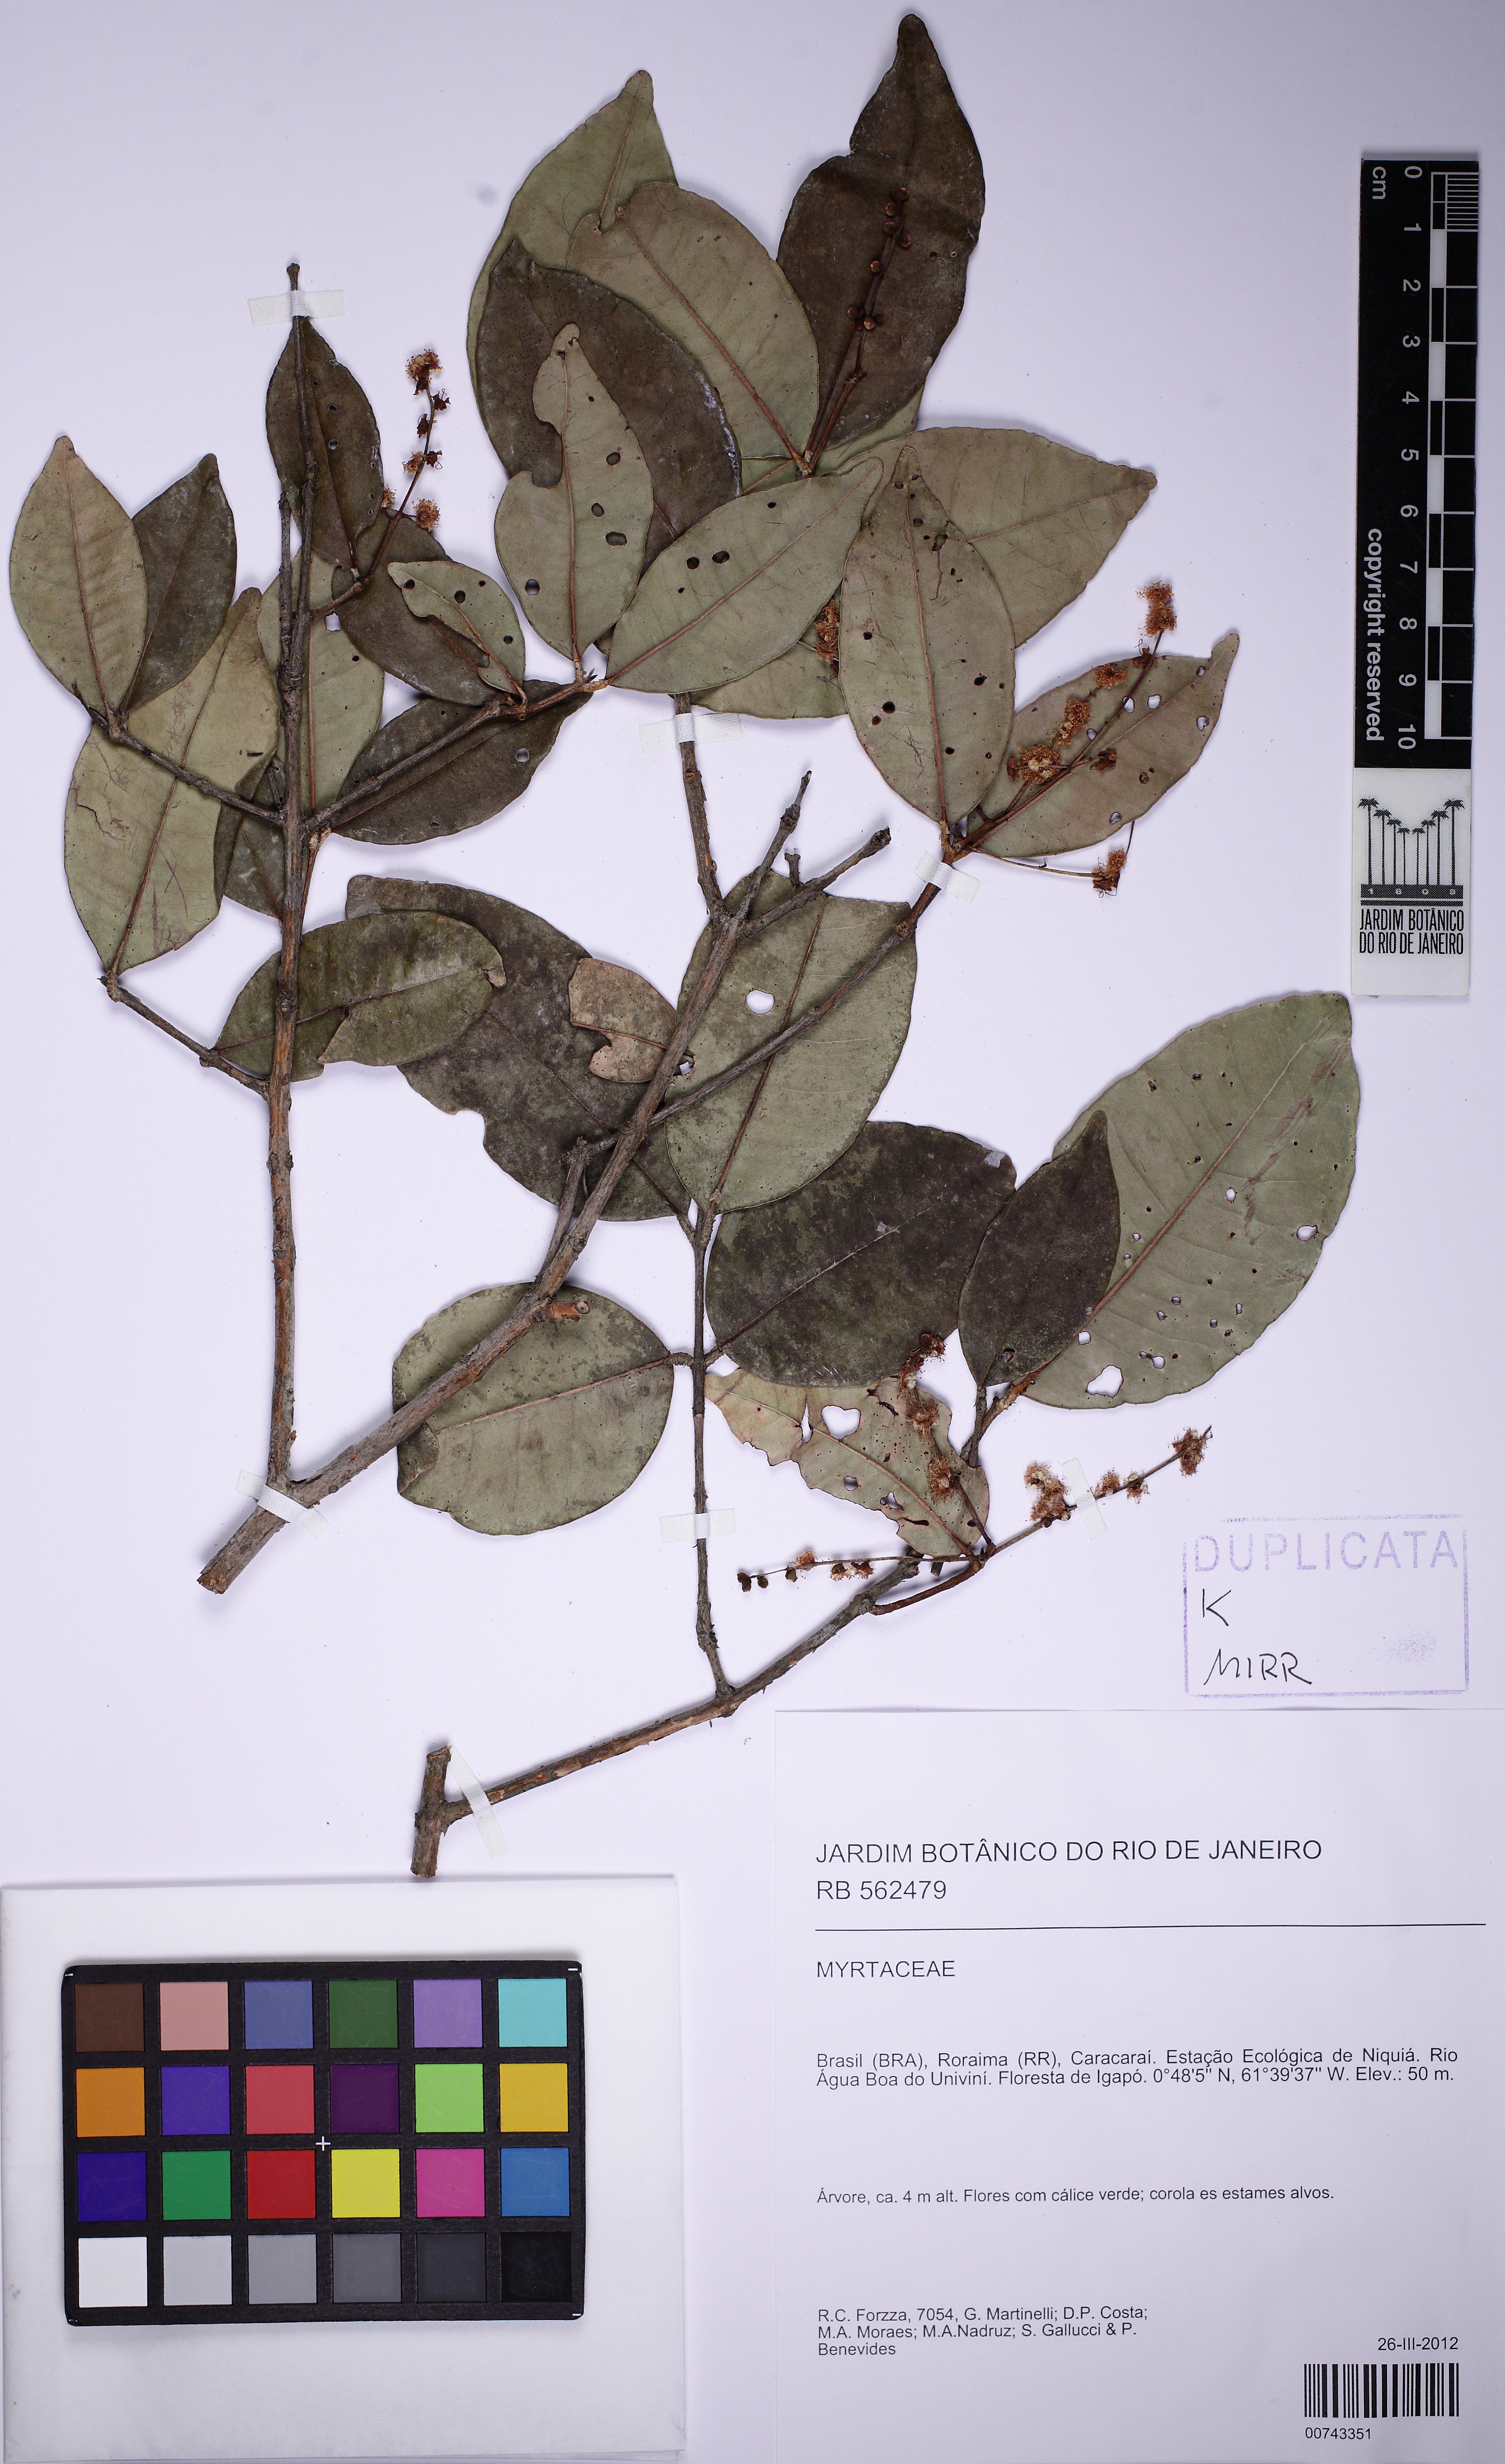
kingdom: Plantae
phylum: Tracheophyta
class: Magnoliopsida
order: Myrtales
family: Myrtaceae
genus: Myrcia
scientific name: Myrcia umbraticola
